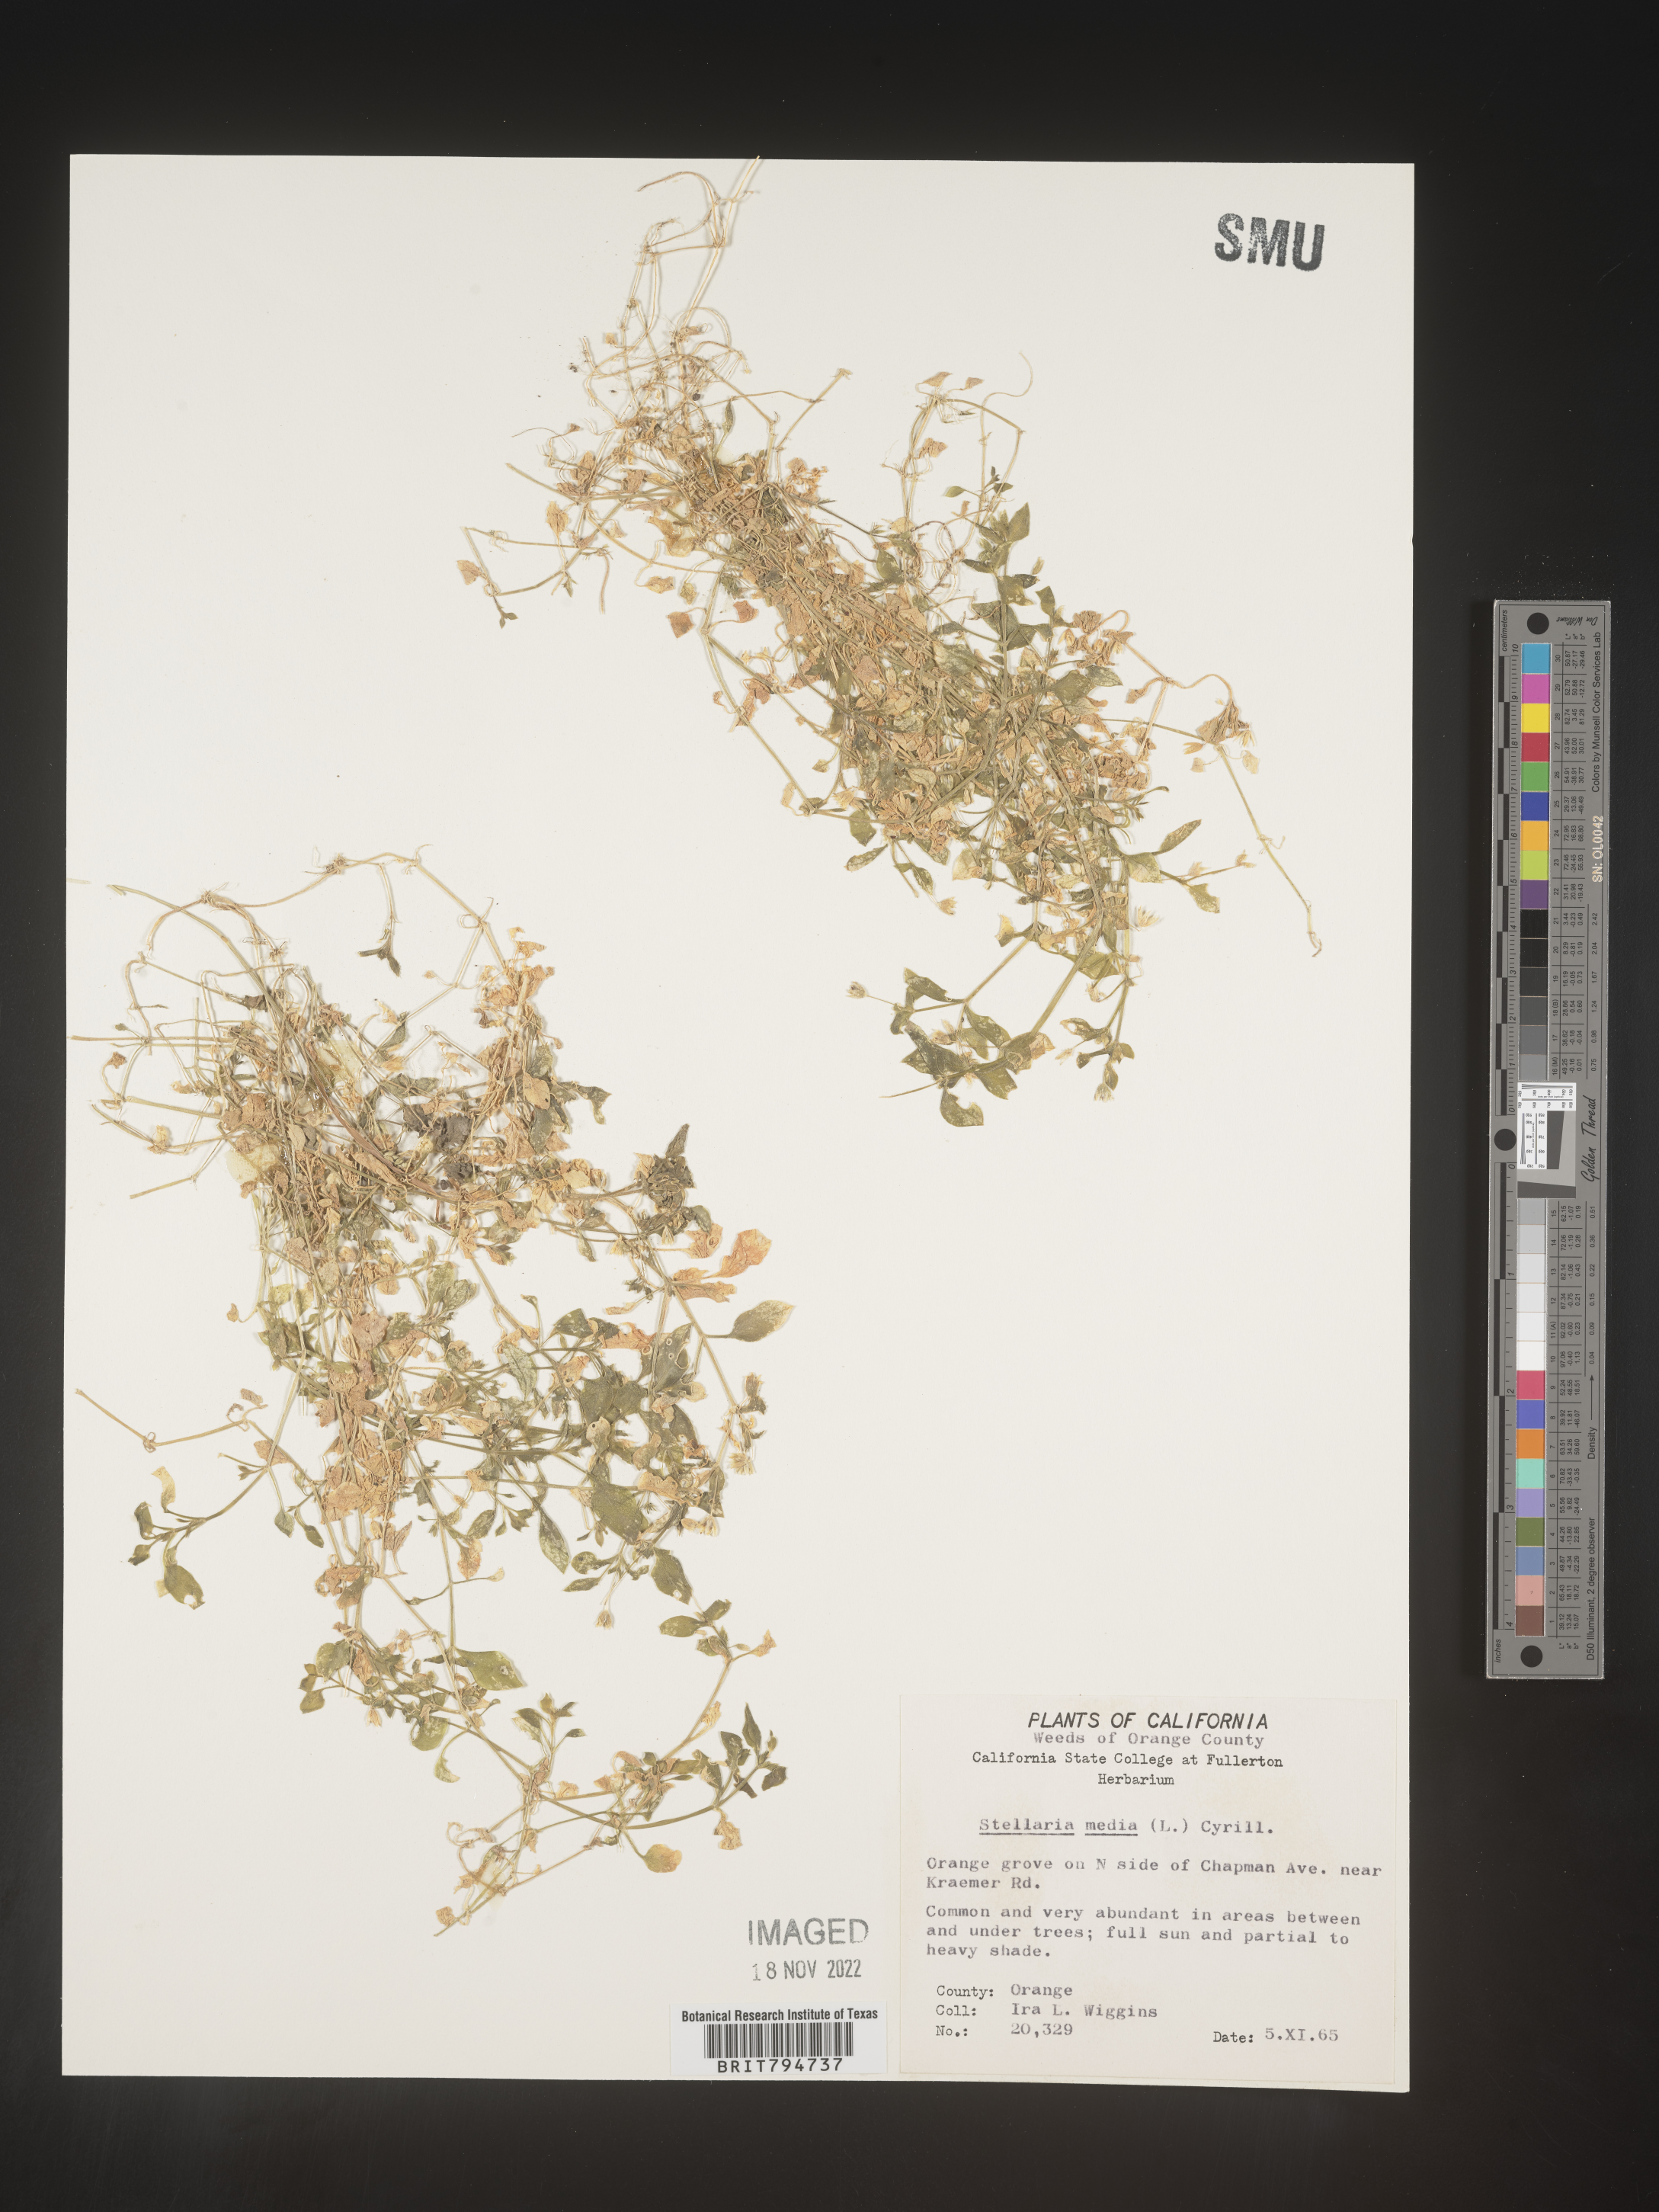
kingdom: Plantae
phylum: Tracheophyta
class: Magnoliopsida
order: Caryophyllales
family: Caryophyllaceae
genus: Stellaria
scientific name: Stellaria media
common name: Common chickweed
